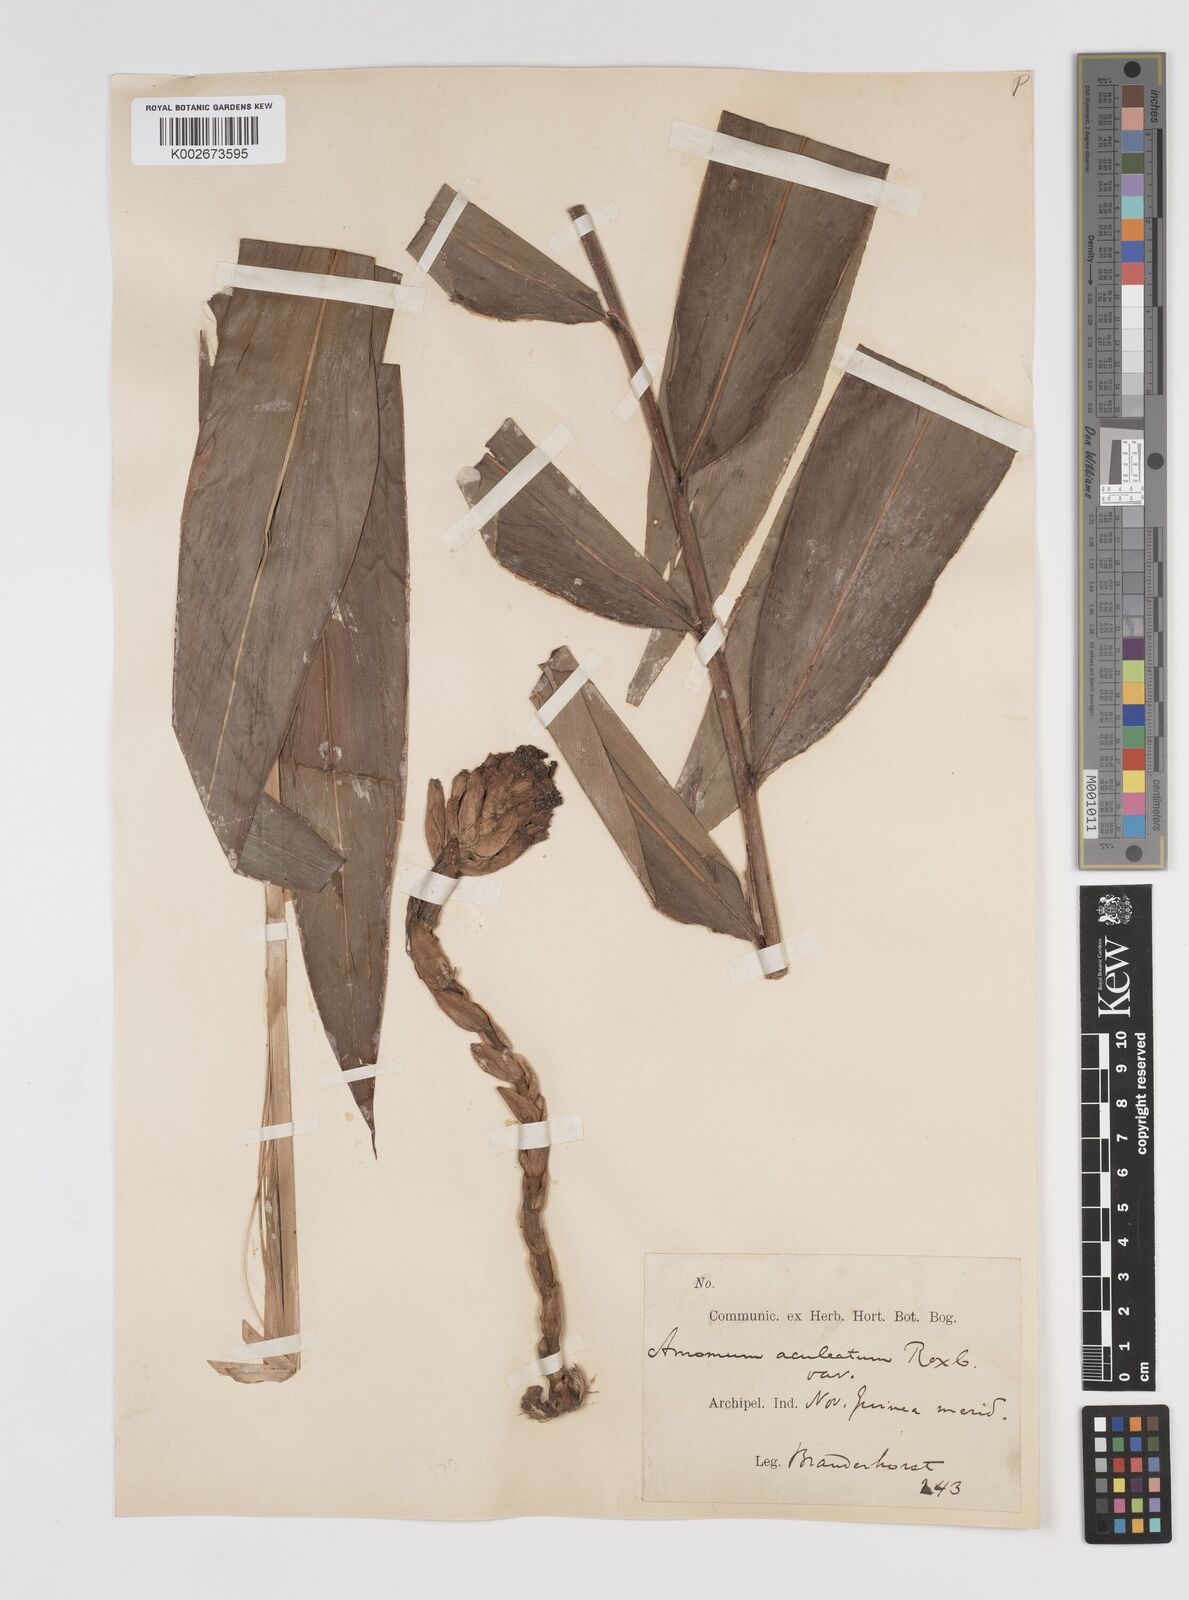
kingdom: Plantae
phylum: Tracheophyta
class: Liliopsida
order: Zingiberales
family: Zingiberaceae
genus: Meistera
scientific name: Meistera aculeata
